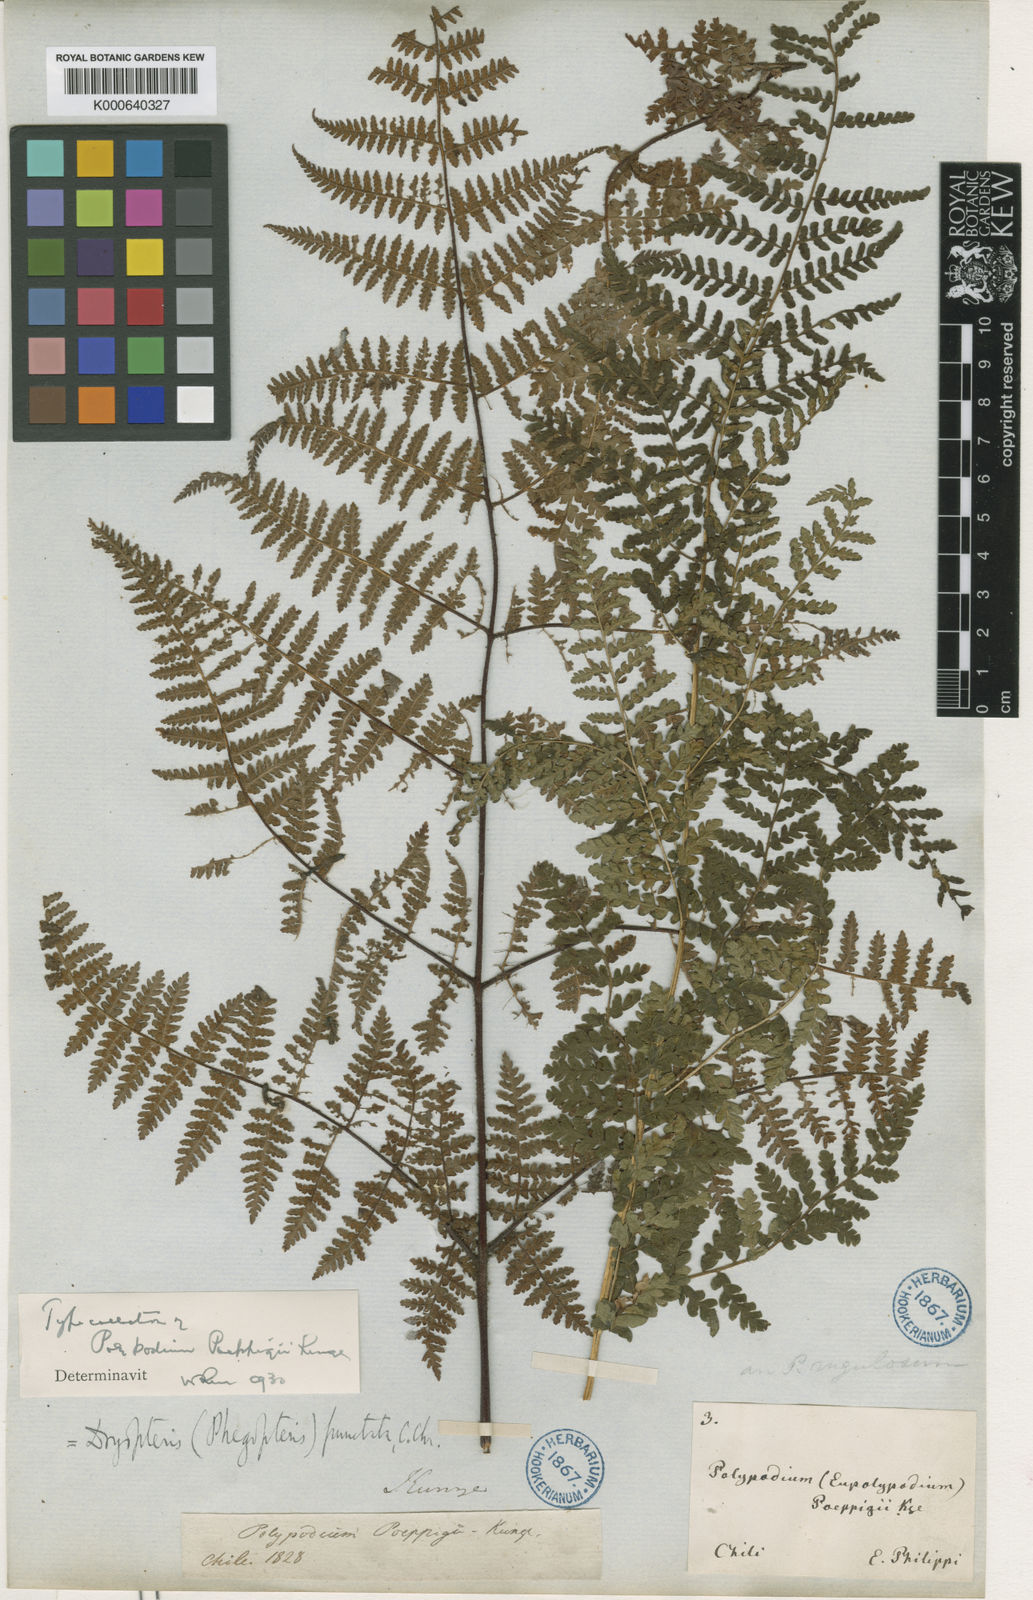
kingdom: Plantae
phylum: Tracheophyta
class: Polypodiopsida
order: Polypodiales
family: Dennstaedtiaceae
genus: Hypolepis
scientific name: Hypolepis rugosula
